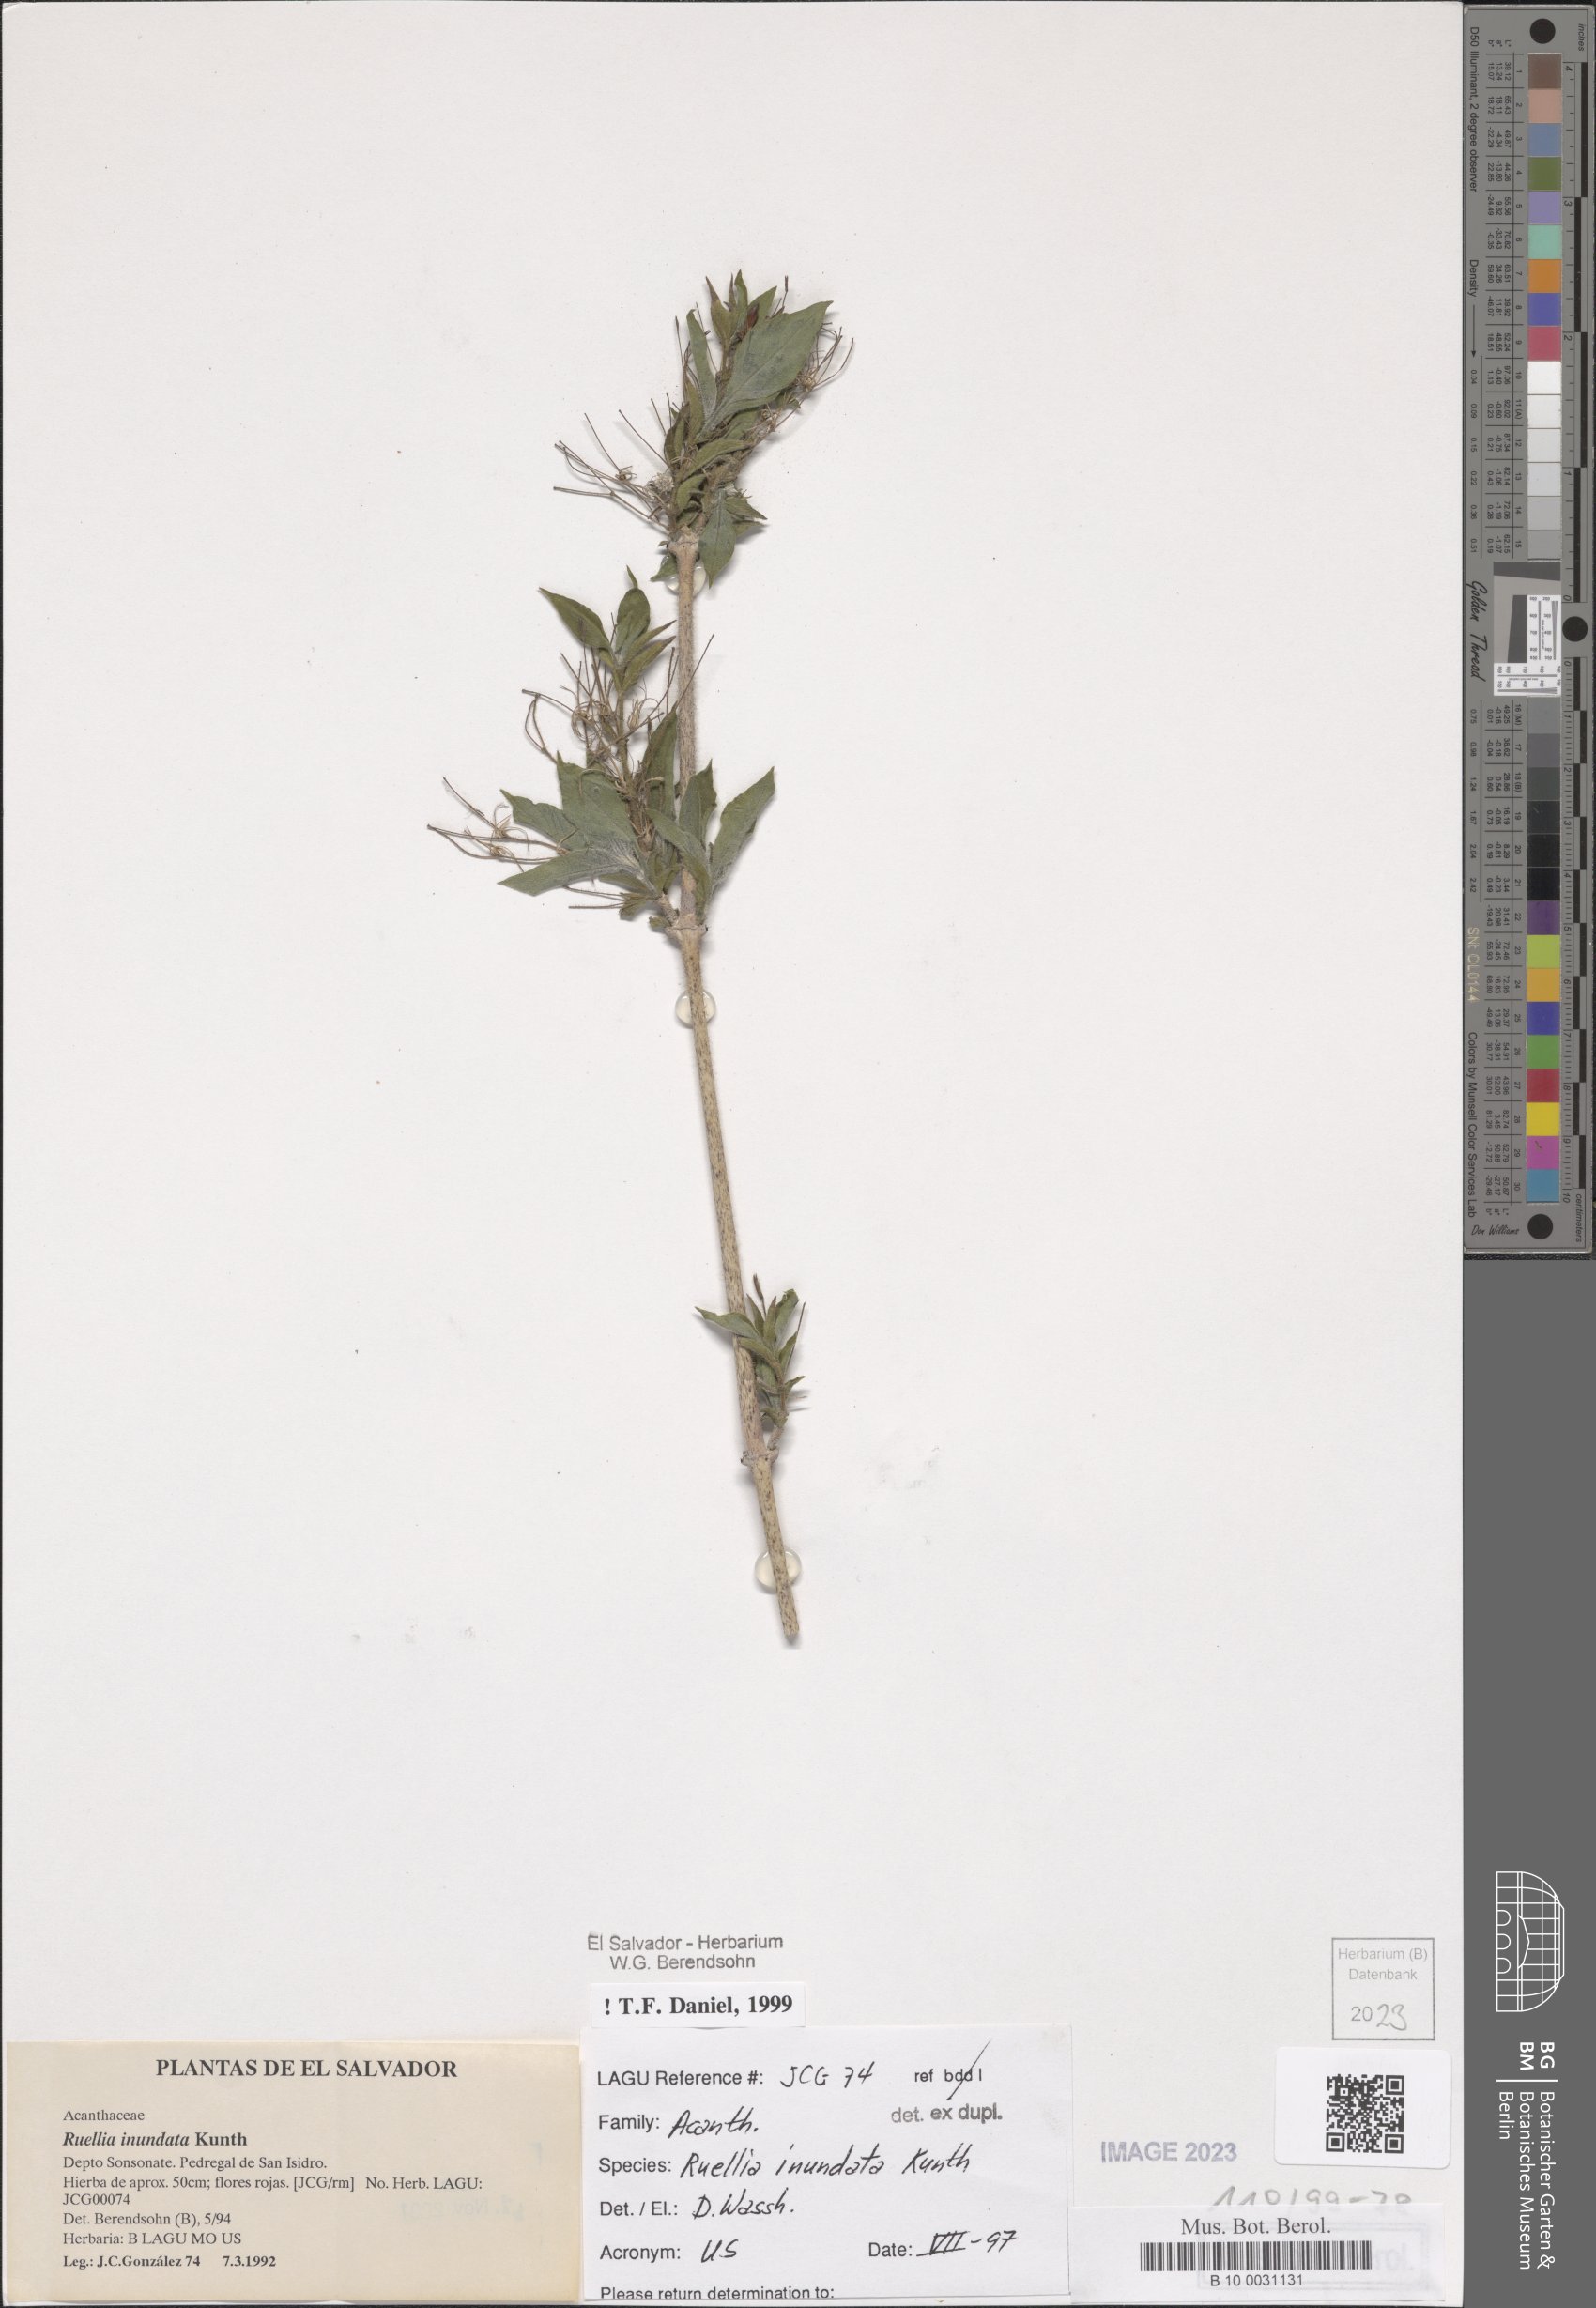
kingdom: Plantae
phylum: Tracheophyta
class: Magnoliopsida
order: Lamiales
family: Acanthaceae
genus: Ruellia
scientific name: Ruellia inundata
